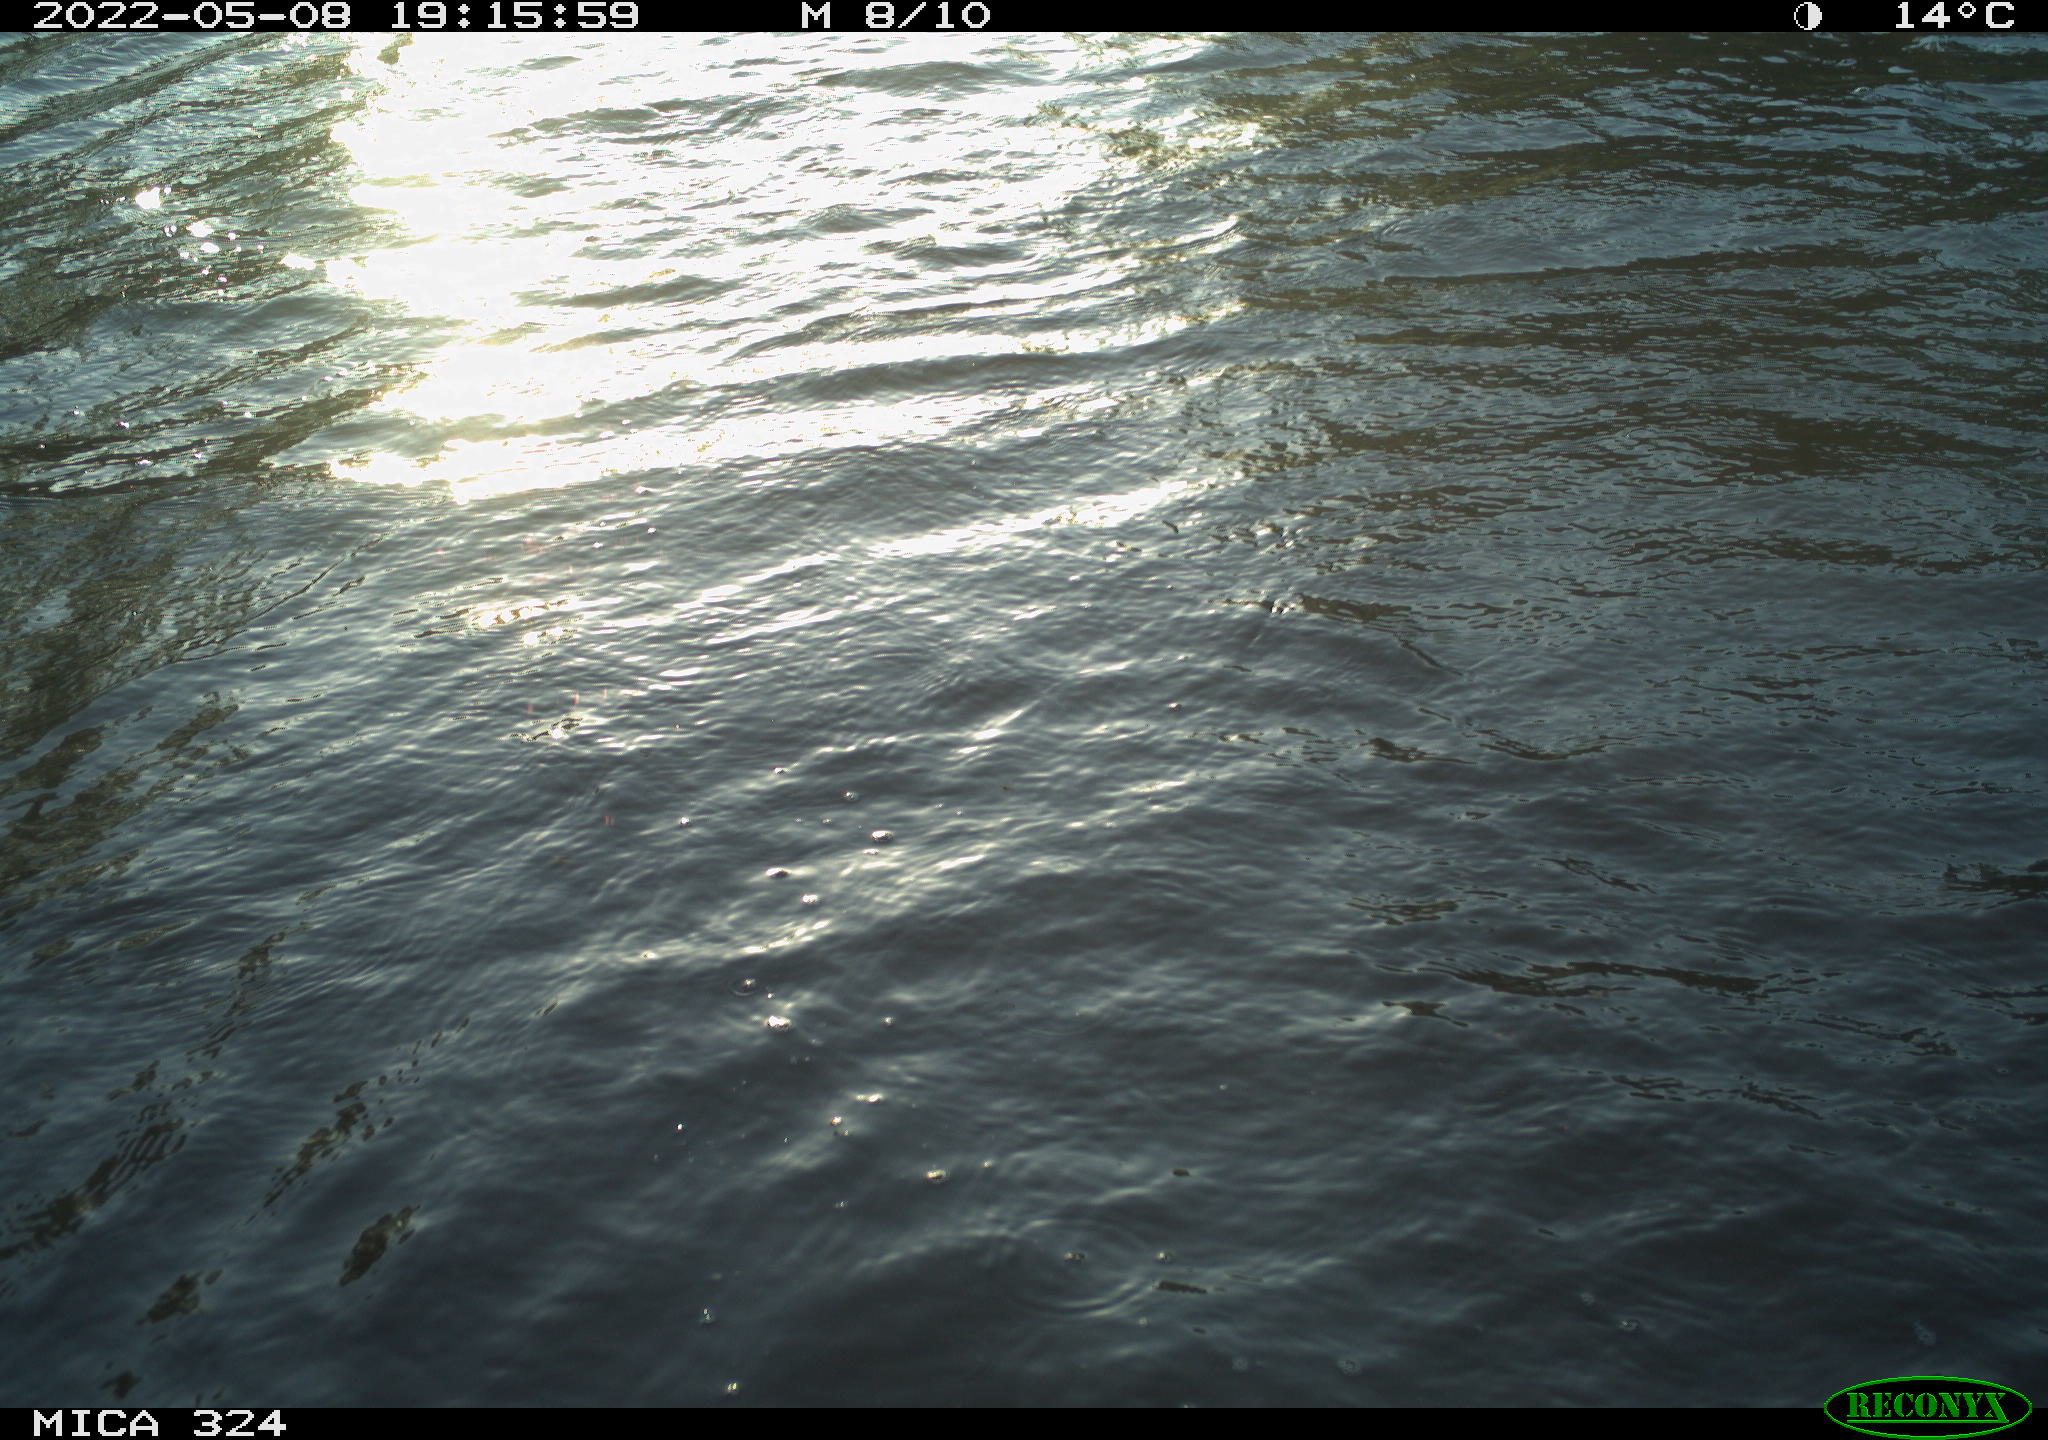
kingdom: Animalia
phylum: Chordata
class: Aves
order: Anseriformes
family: Anatidae
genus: Anas
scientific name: Anas platyrhynchos
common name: Mallard
